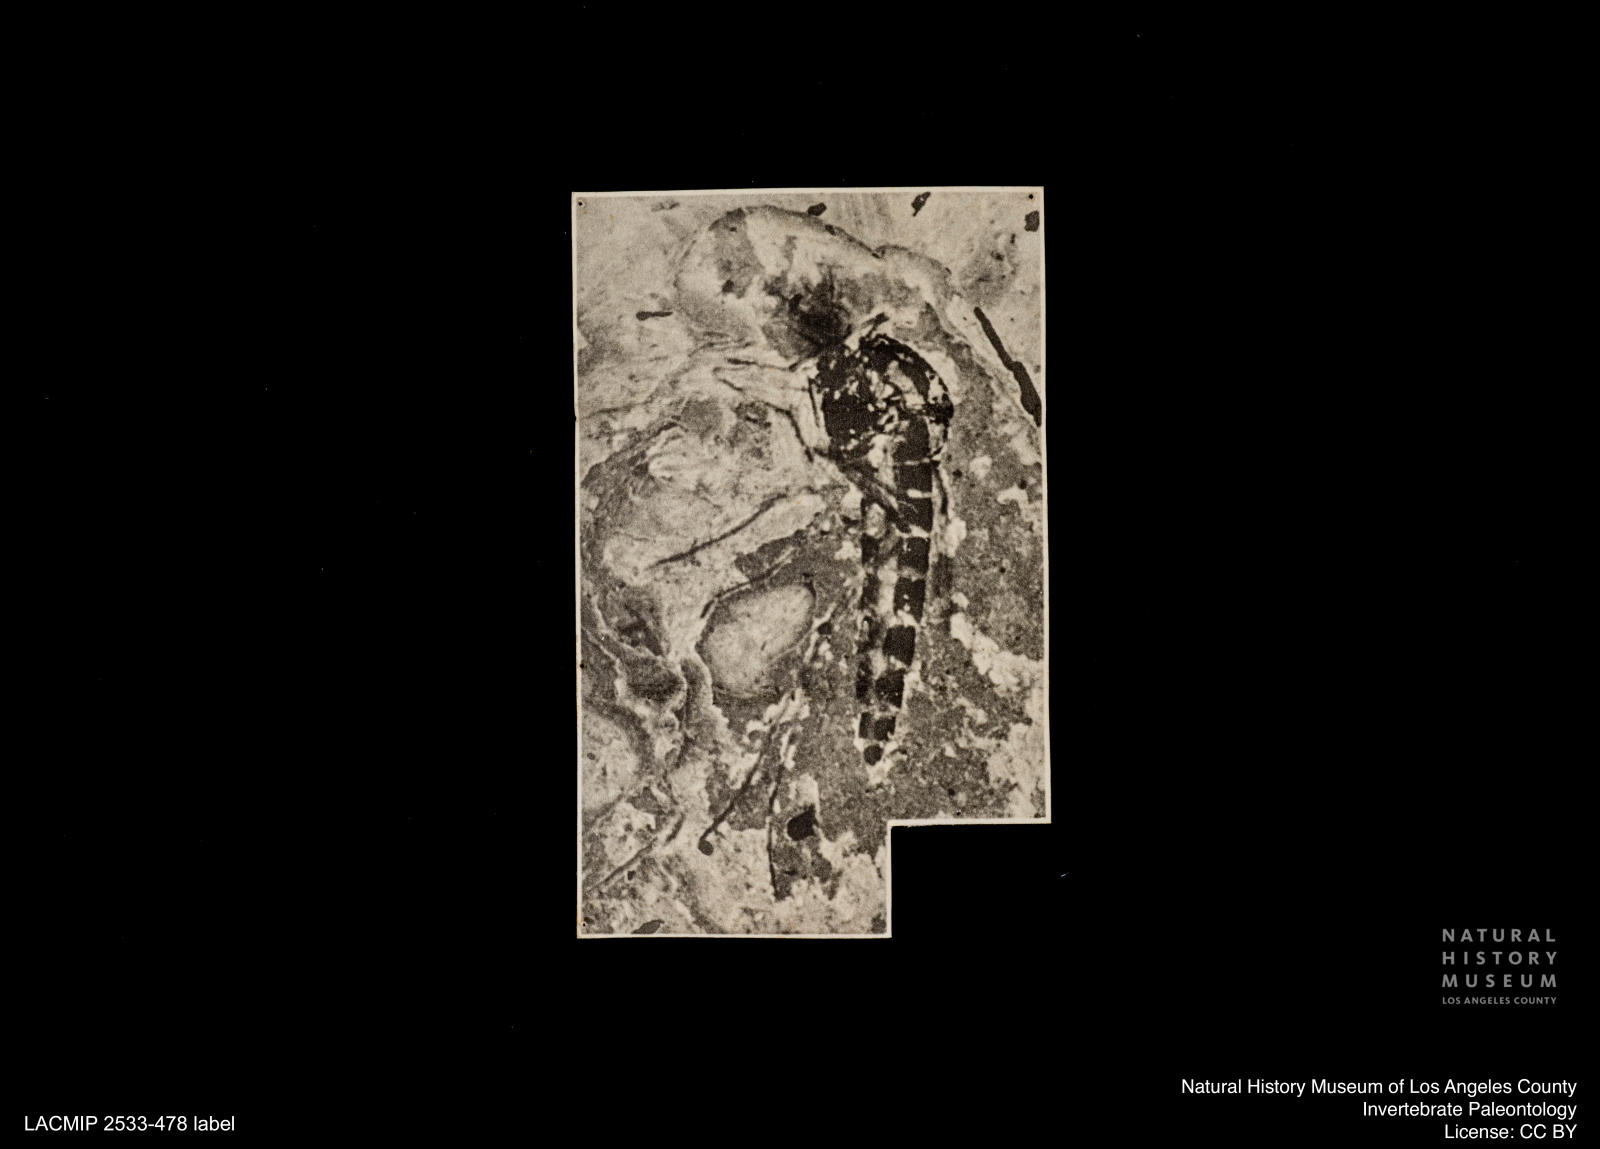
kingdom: Animalia
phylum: Arthropoda
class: Insecta
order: Diptera
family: Chironomidae
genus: Procladius
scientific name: Procladius
